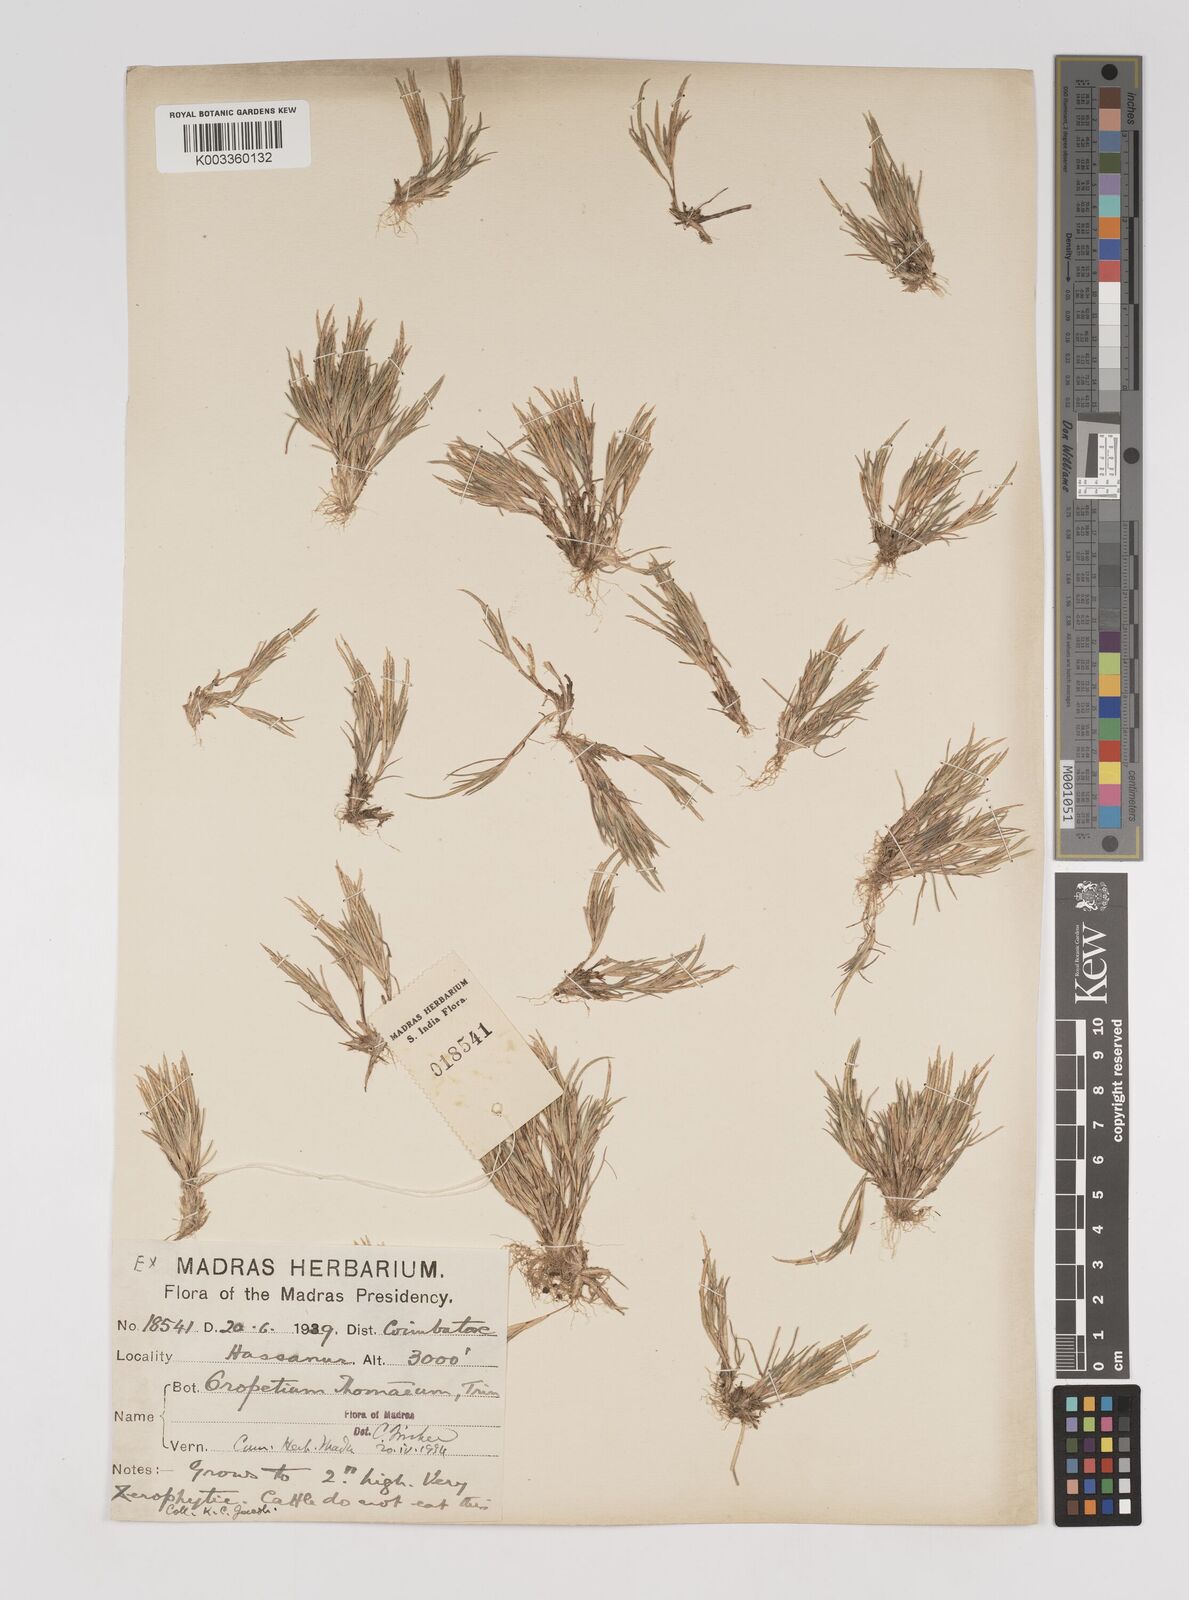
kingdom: Plantae
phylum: Tracheophyta
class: Liliopsida
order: Poales
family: Poaceae
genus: Oropetium
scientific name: Oropetium thomaeum
